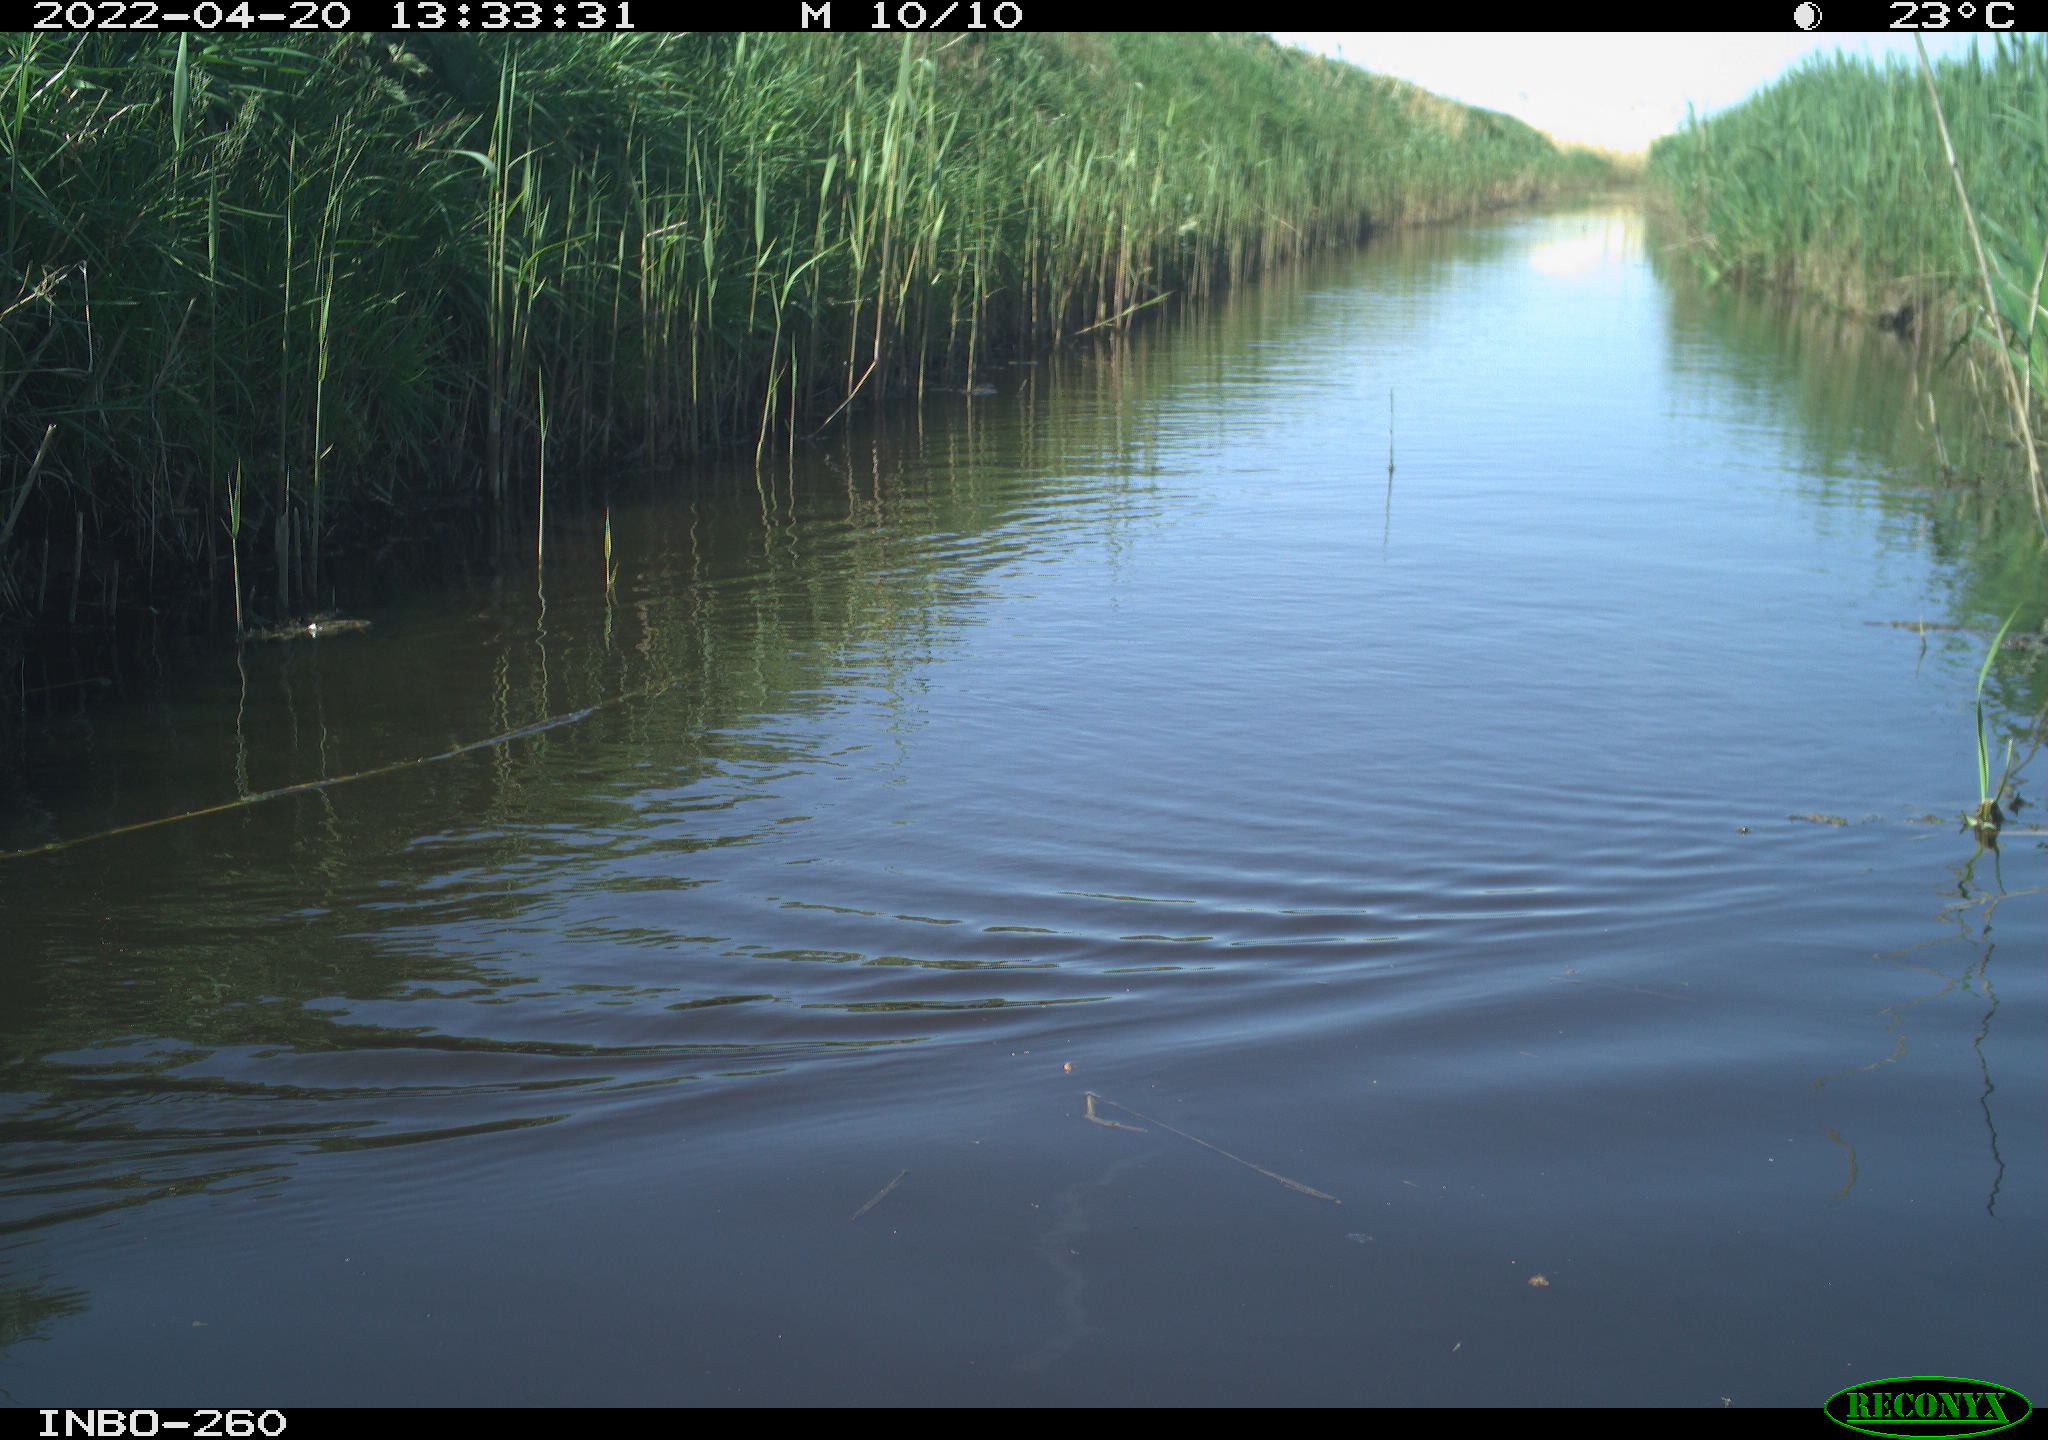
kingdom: Animalia
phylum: Chordata
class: Aves
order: Gruiformes
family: Rallidae
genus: Fulica
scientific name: Fulica atra
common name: Eurasian coot
